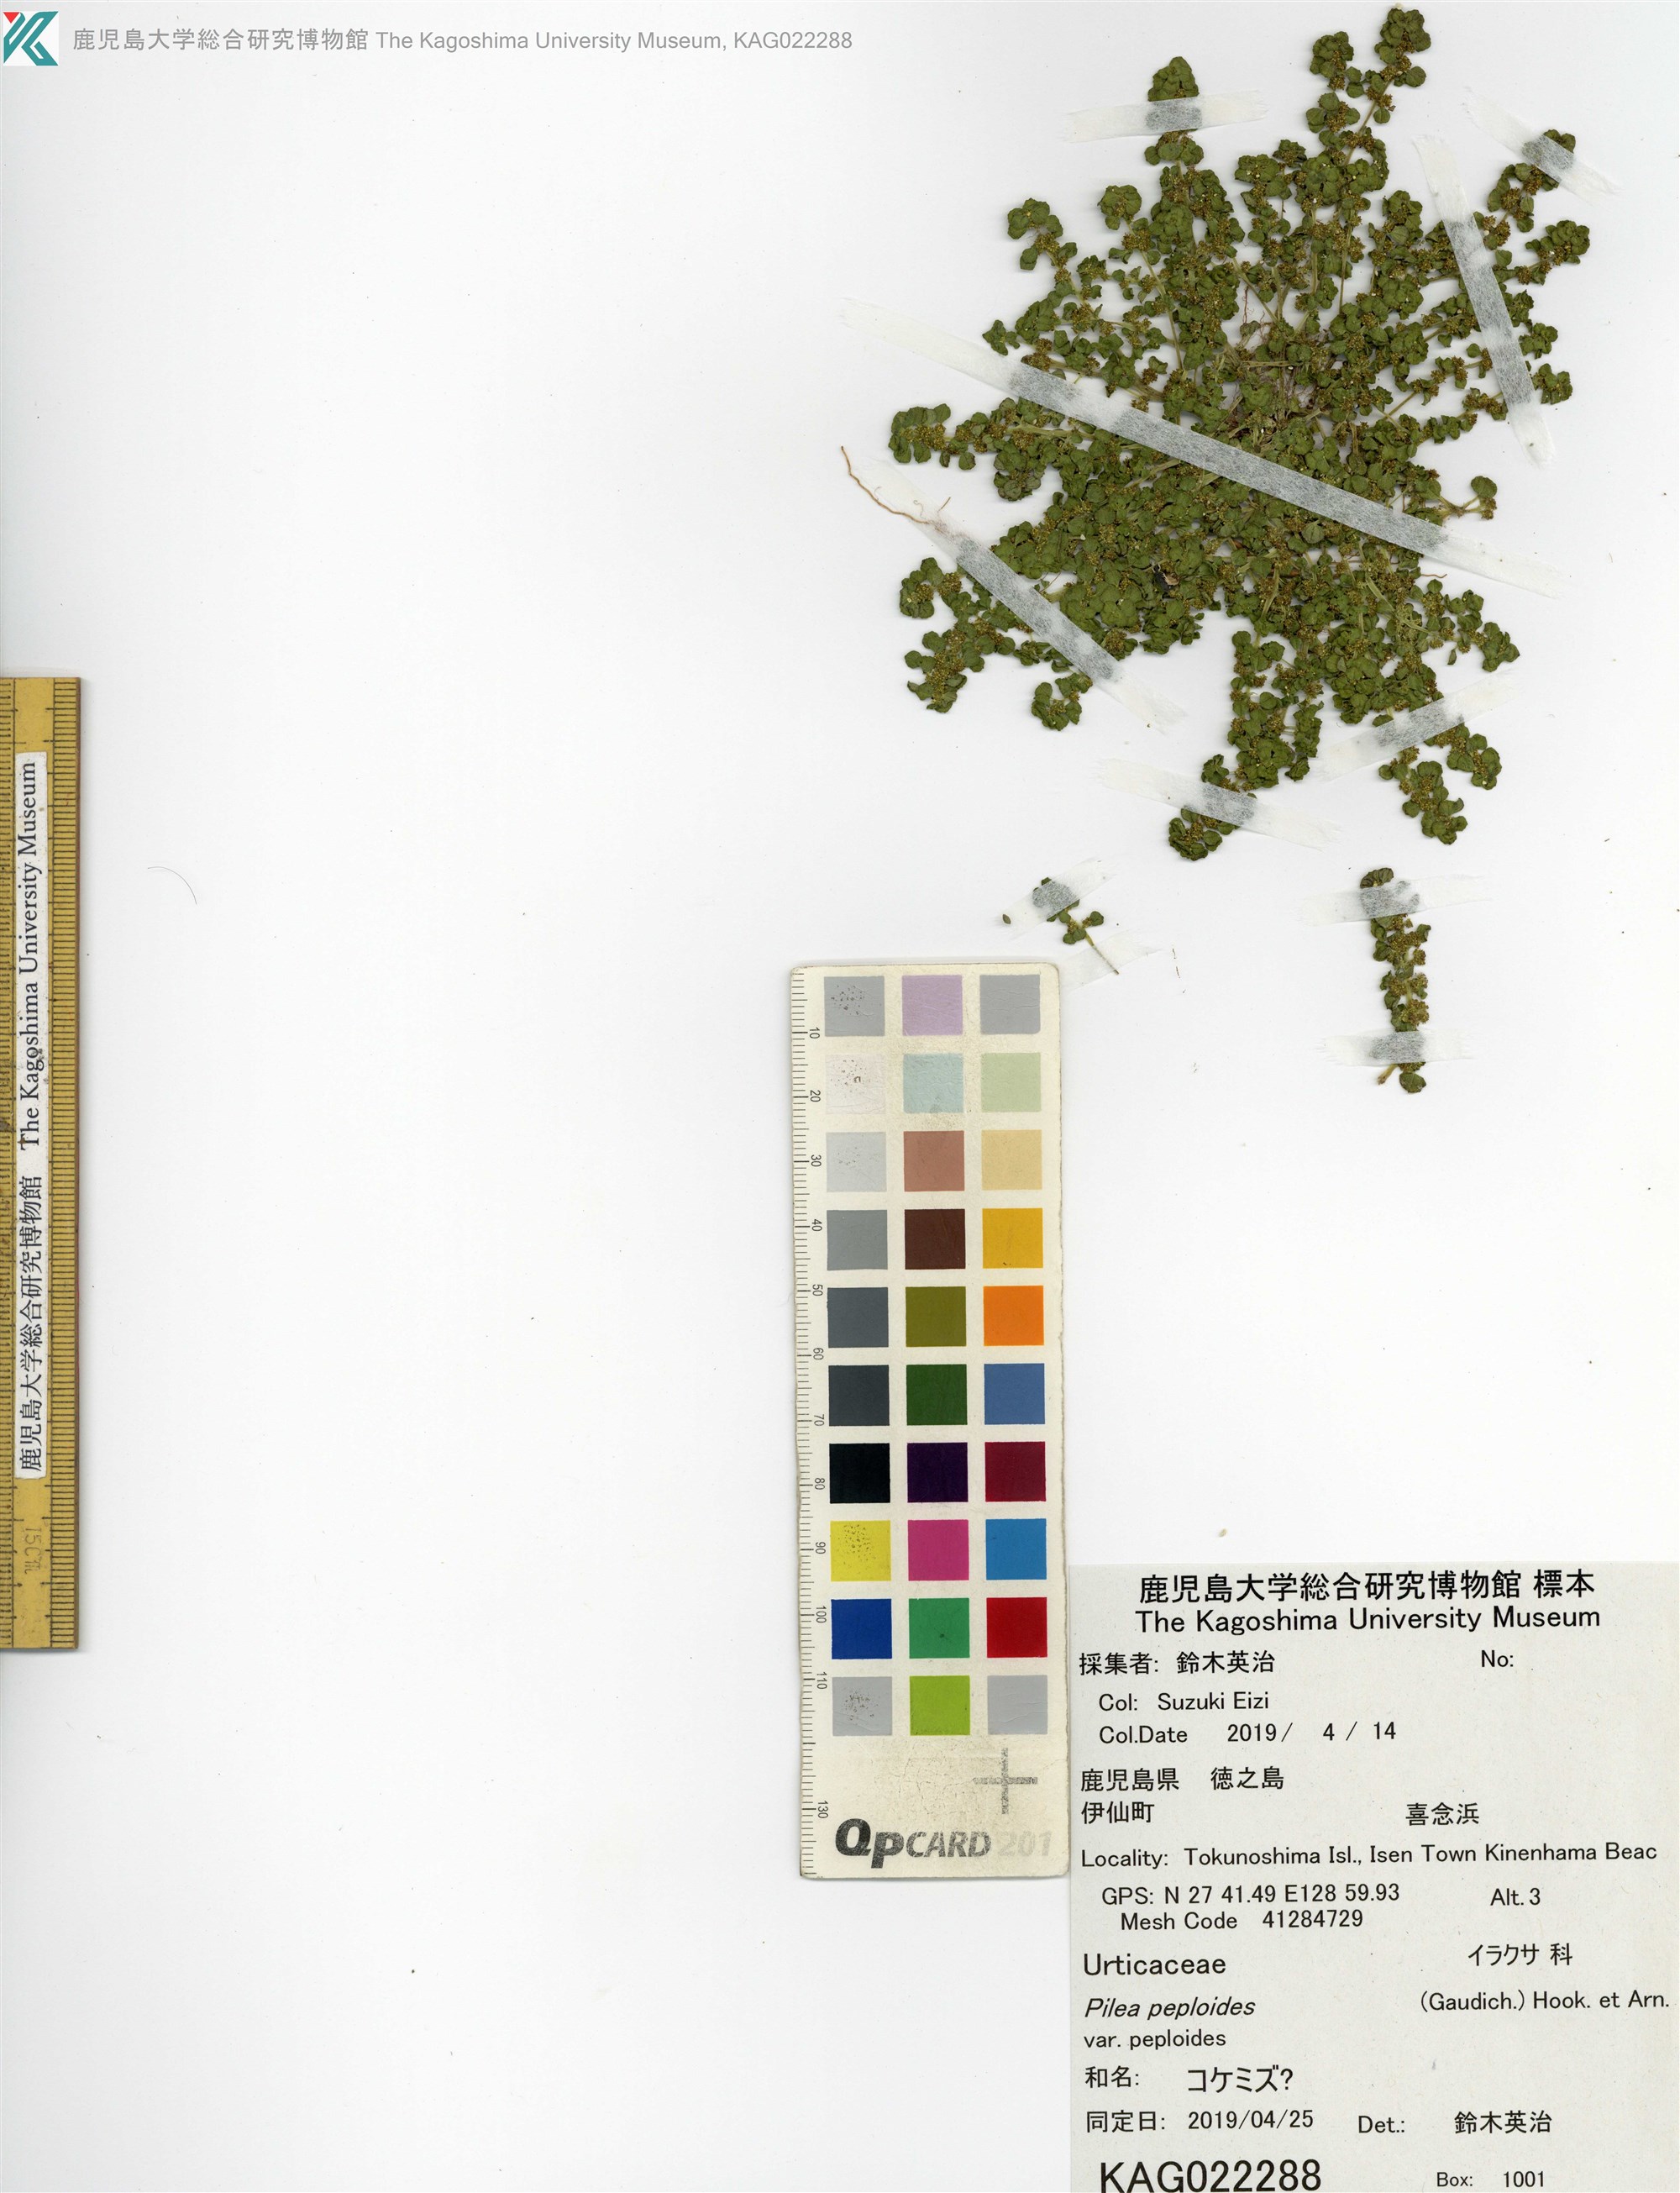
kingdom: Plantae
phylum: Tracheophyta
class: Magnoliopsida
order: Rosales
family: Urticaceae
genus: Pilea
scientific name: Pilea peploides
